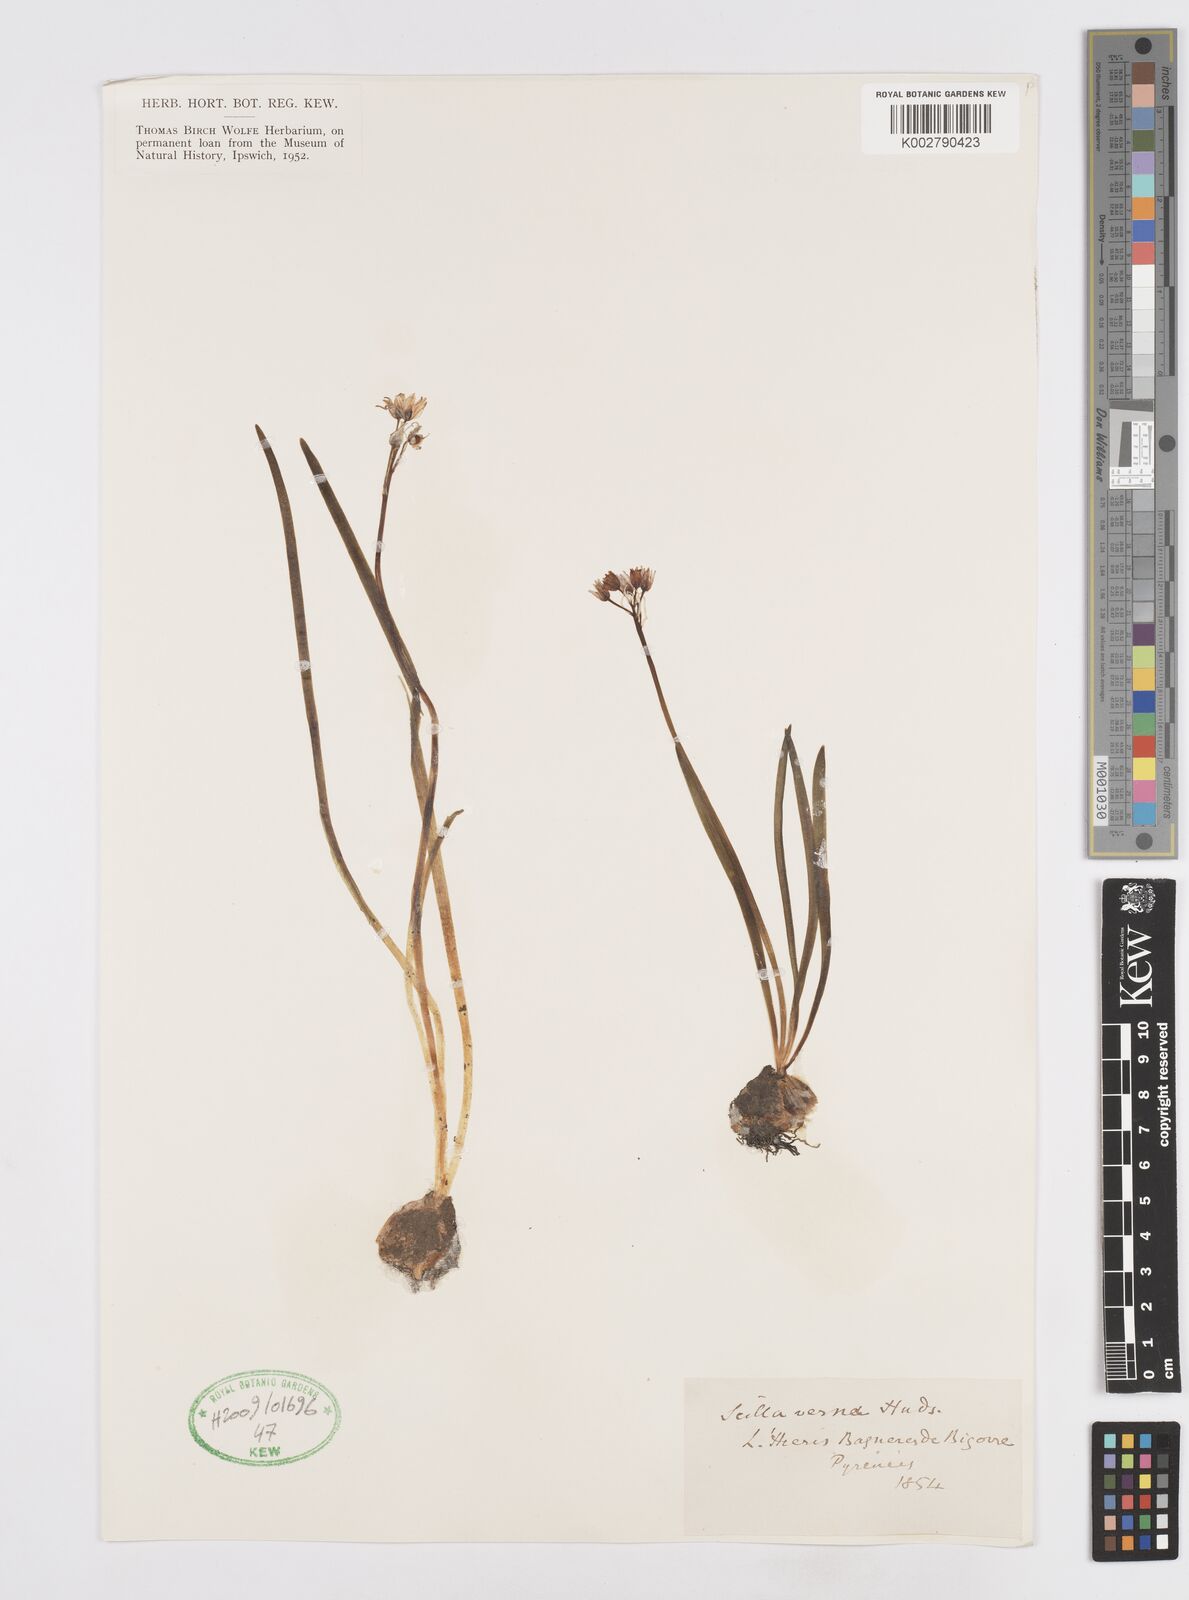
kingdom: Plantae
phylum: Tracheophyta
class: Liliopsida
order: Asparagales
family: Asparagaceae
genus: Scilla
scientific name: Scilla verna
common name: Spring squill
